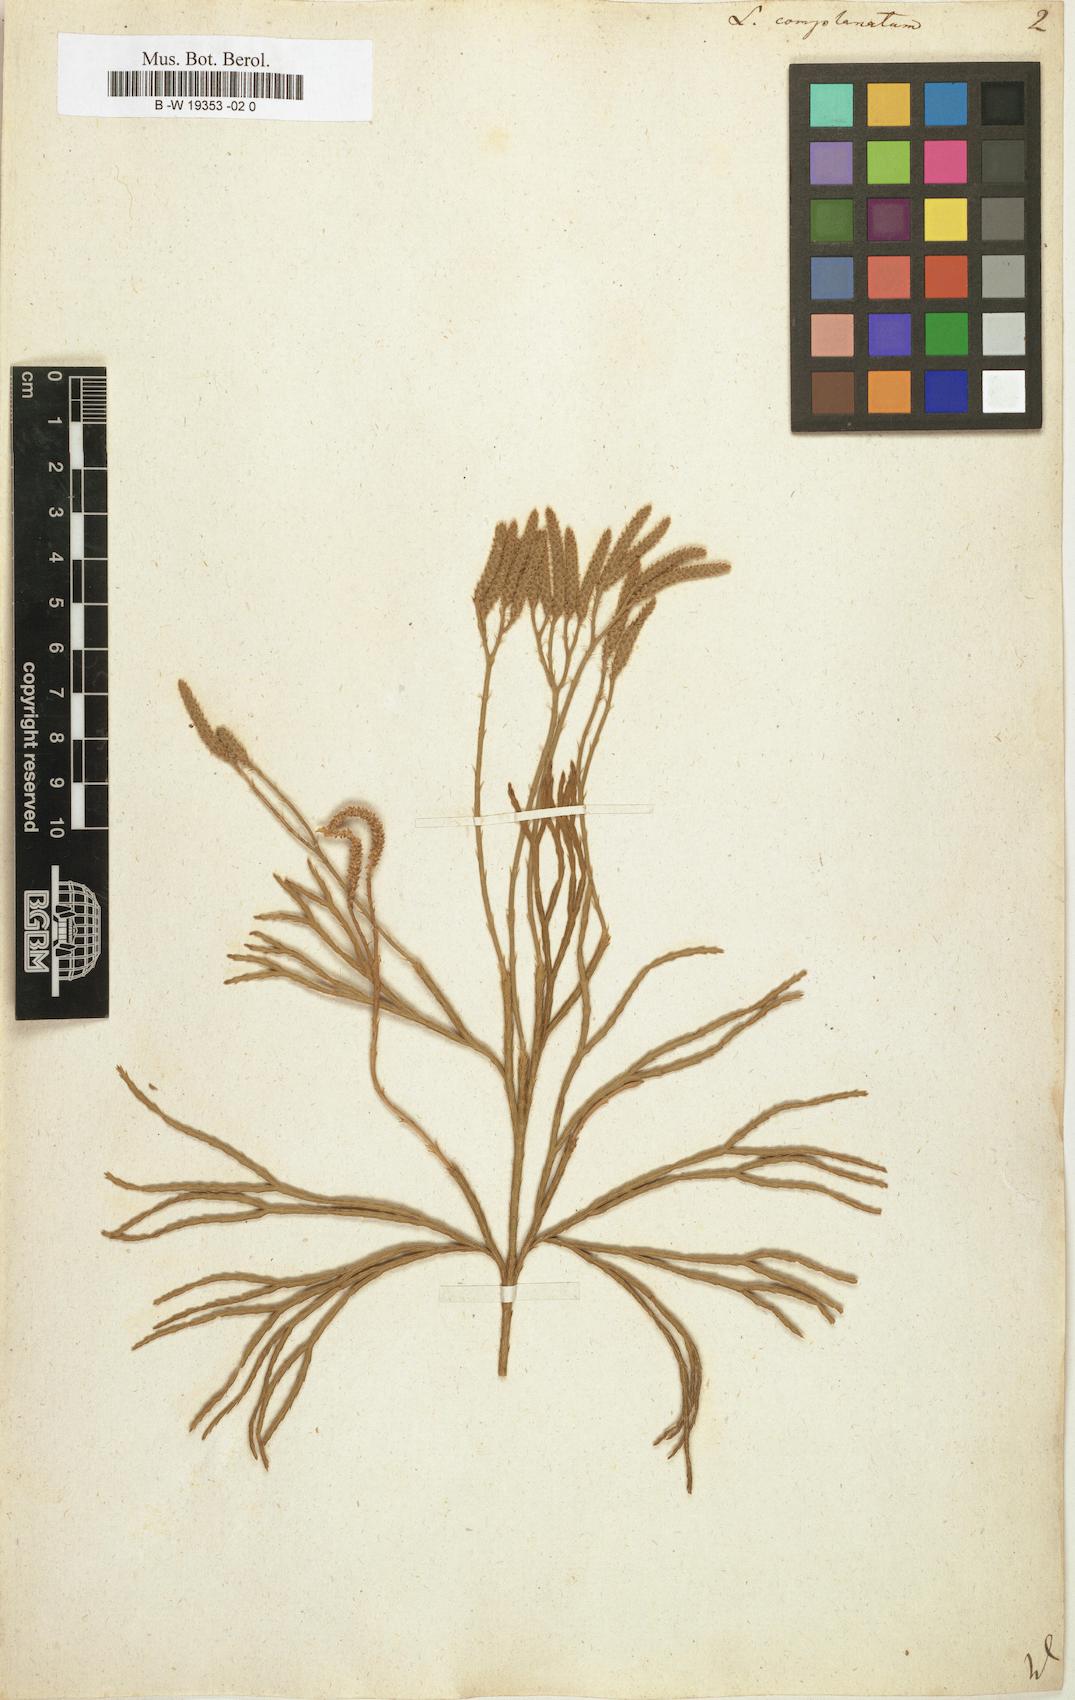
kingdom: Plantae
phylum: Tracheophyta
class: Lycopodiopsida
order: Lycopodiales
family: Lycopodiaceae
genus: Diphasiastrum
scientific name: Diphasiastrum
